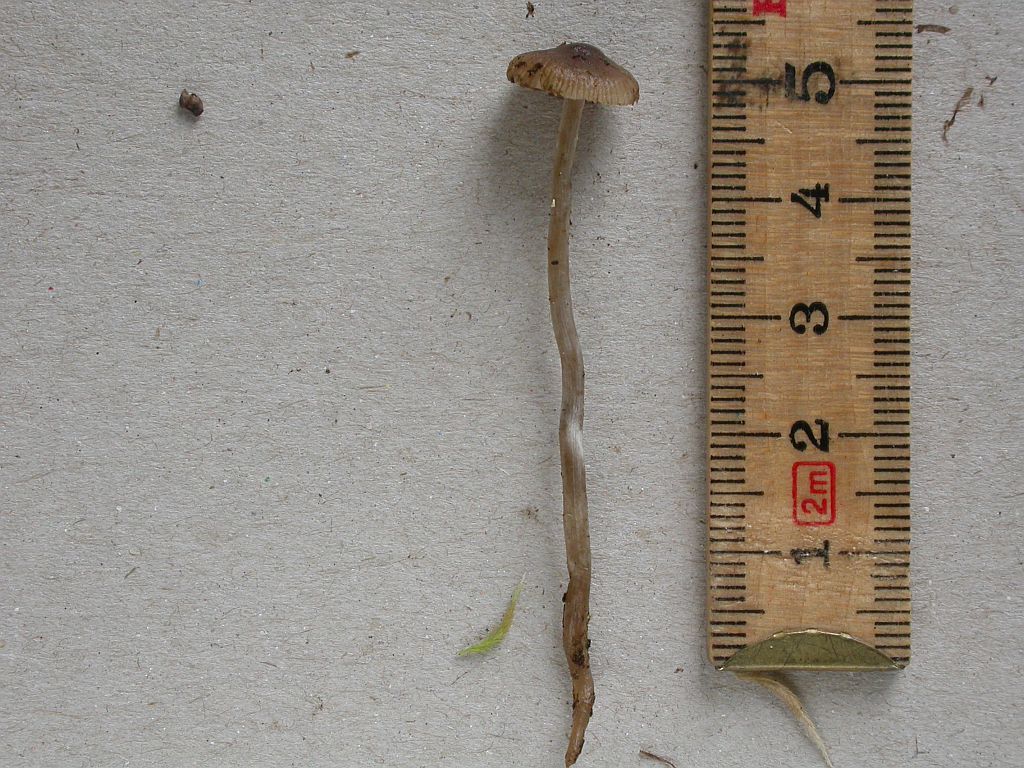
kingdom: Fungi
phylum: Basidiomycota
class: Agaricomycetes
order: Agaricales
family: Lyophyllaceae
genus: Sagaranella
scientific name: Sagaranella tylicolor
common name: kvælstof-gråblad
